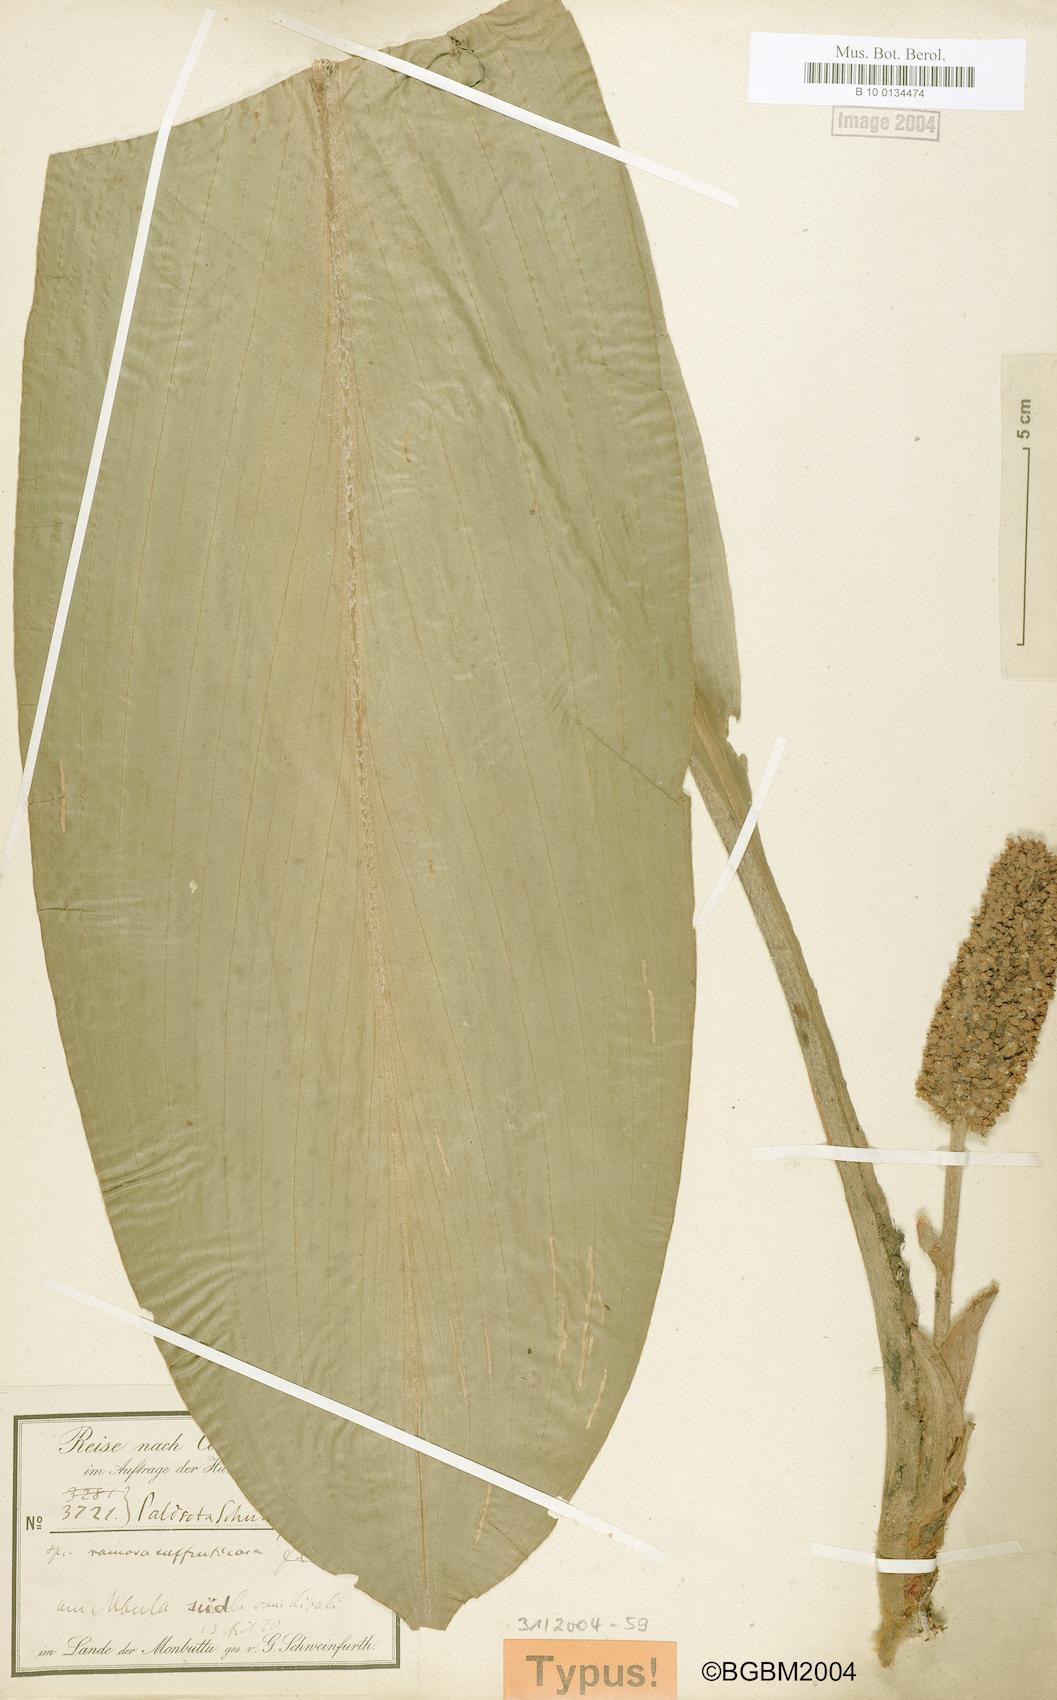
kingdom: Plantae
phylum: Tracheophyta
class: Liliopsida
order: Commelinales
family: Commelinaceae
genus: Palisota
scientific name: Palisota mannii
